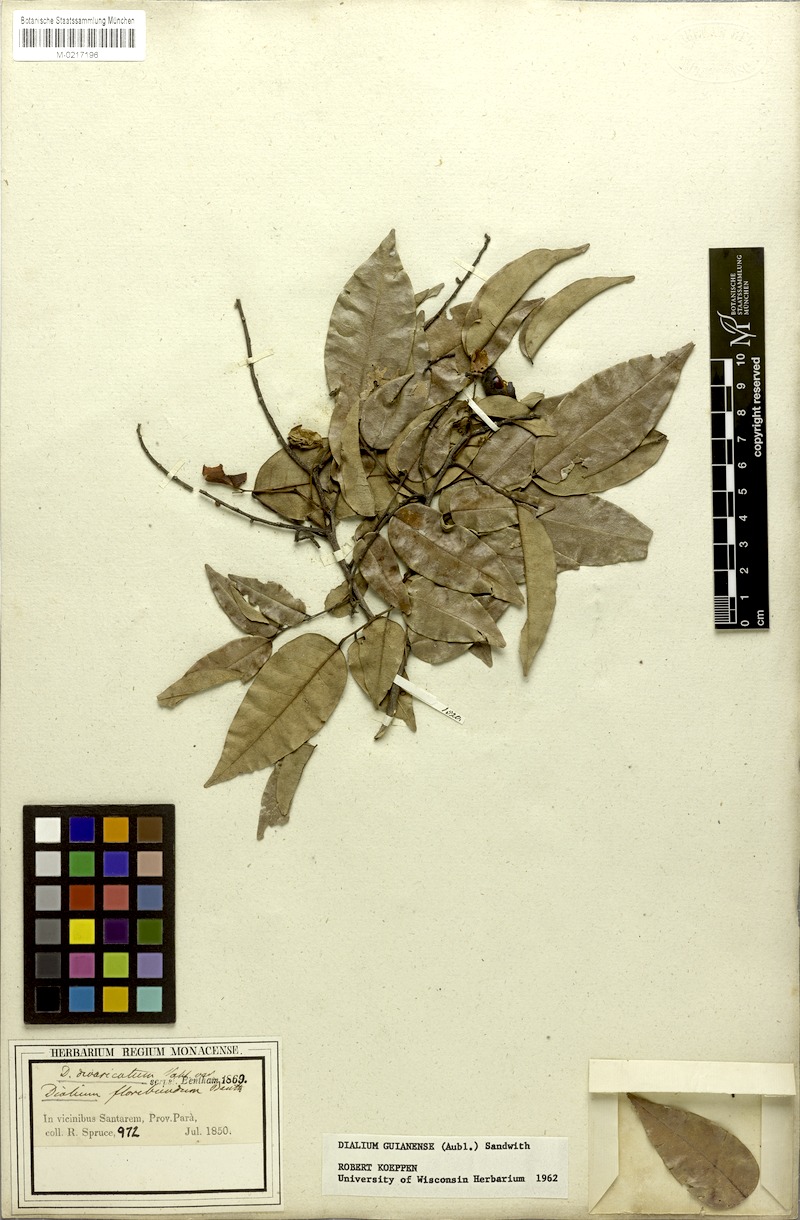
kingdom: Plantae
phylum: Tracheophyta
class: Magnoliopsida
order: Fabales
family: Fabaceae
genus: Dialium
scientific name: Dialium guianense
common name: Ironwood
